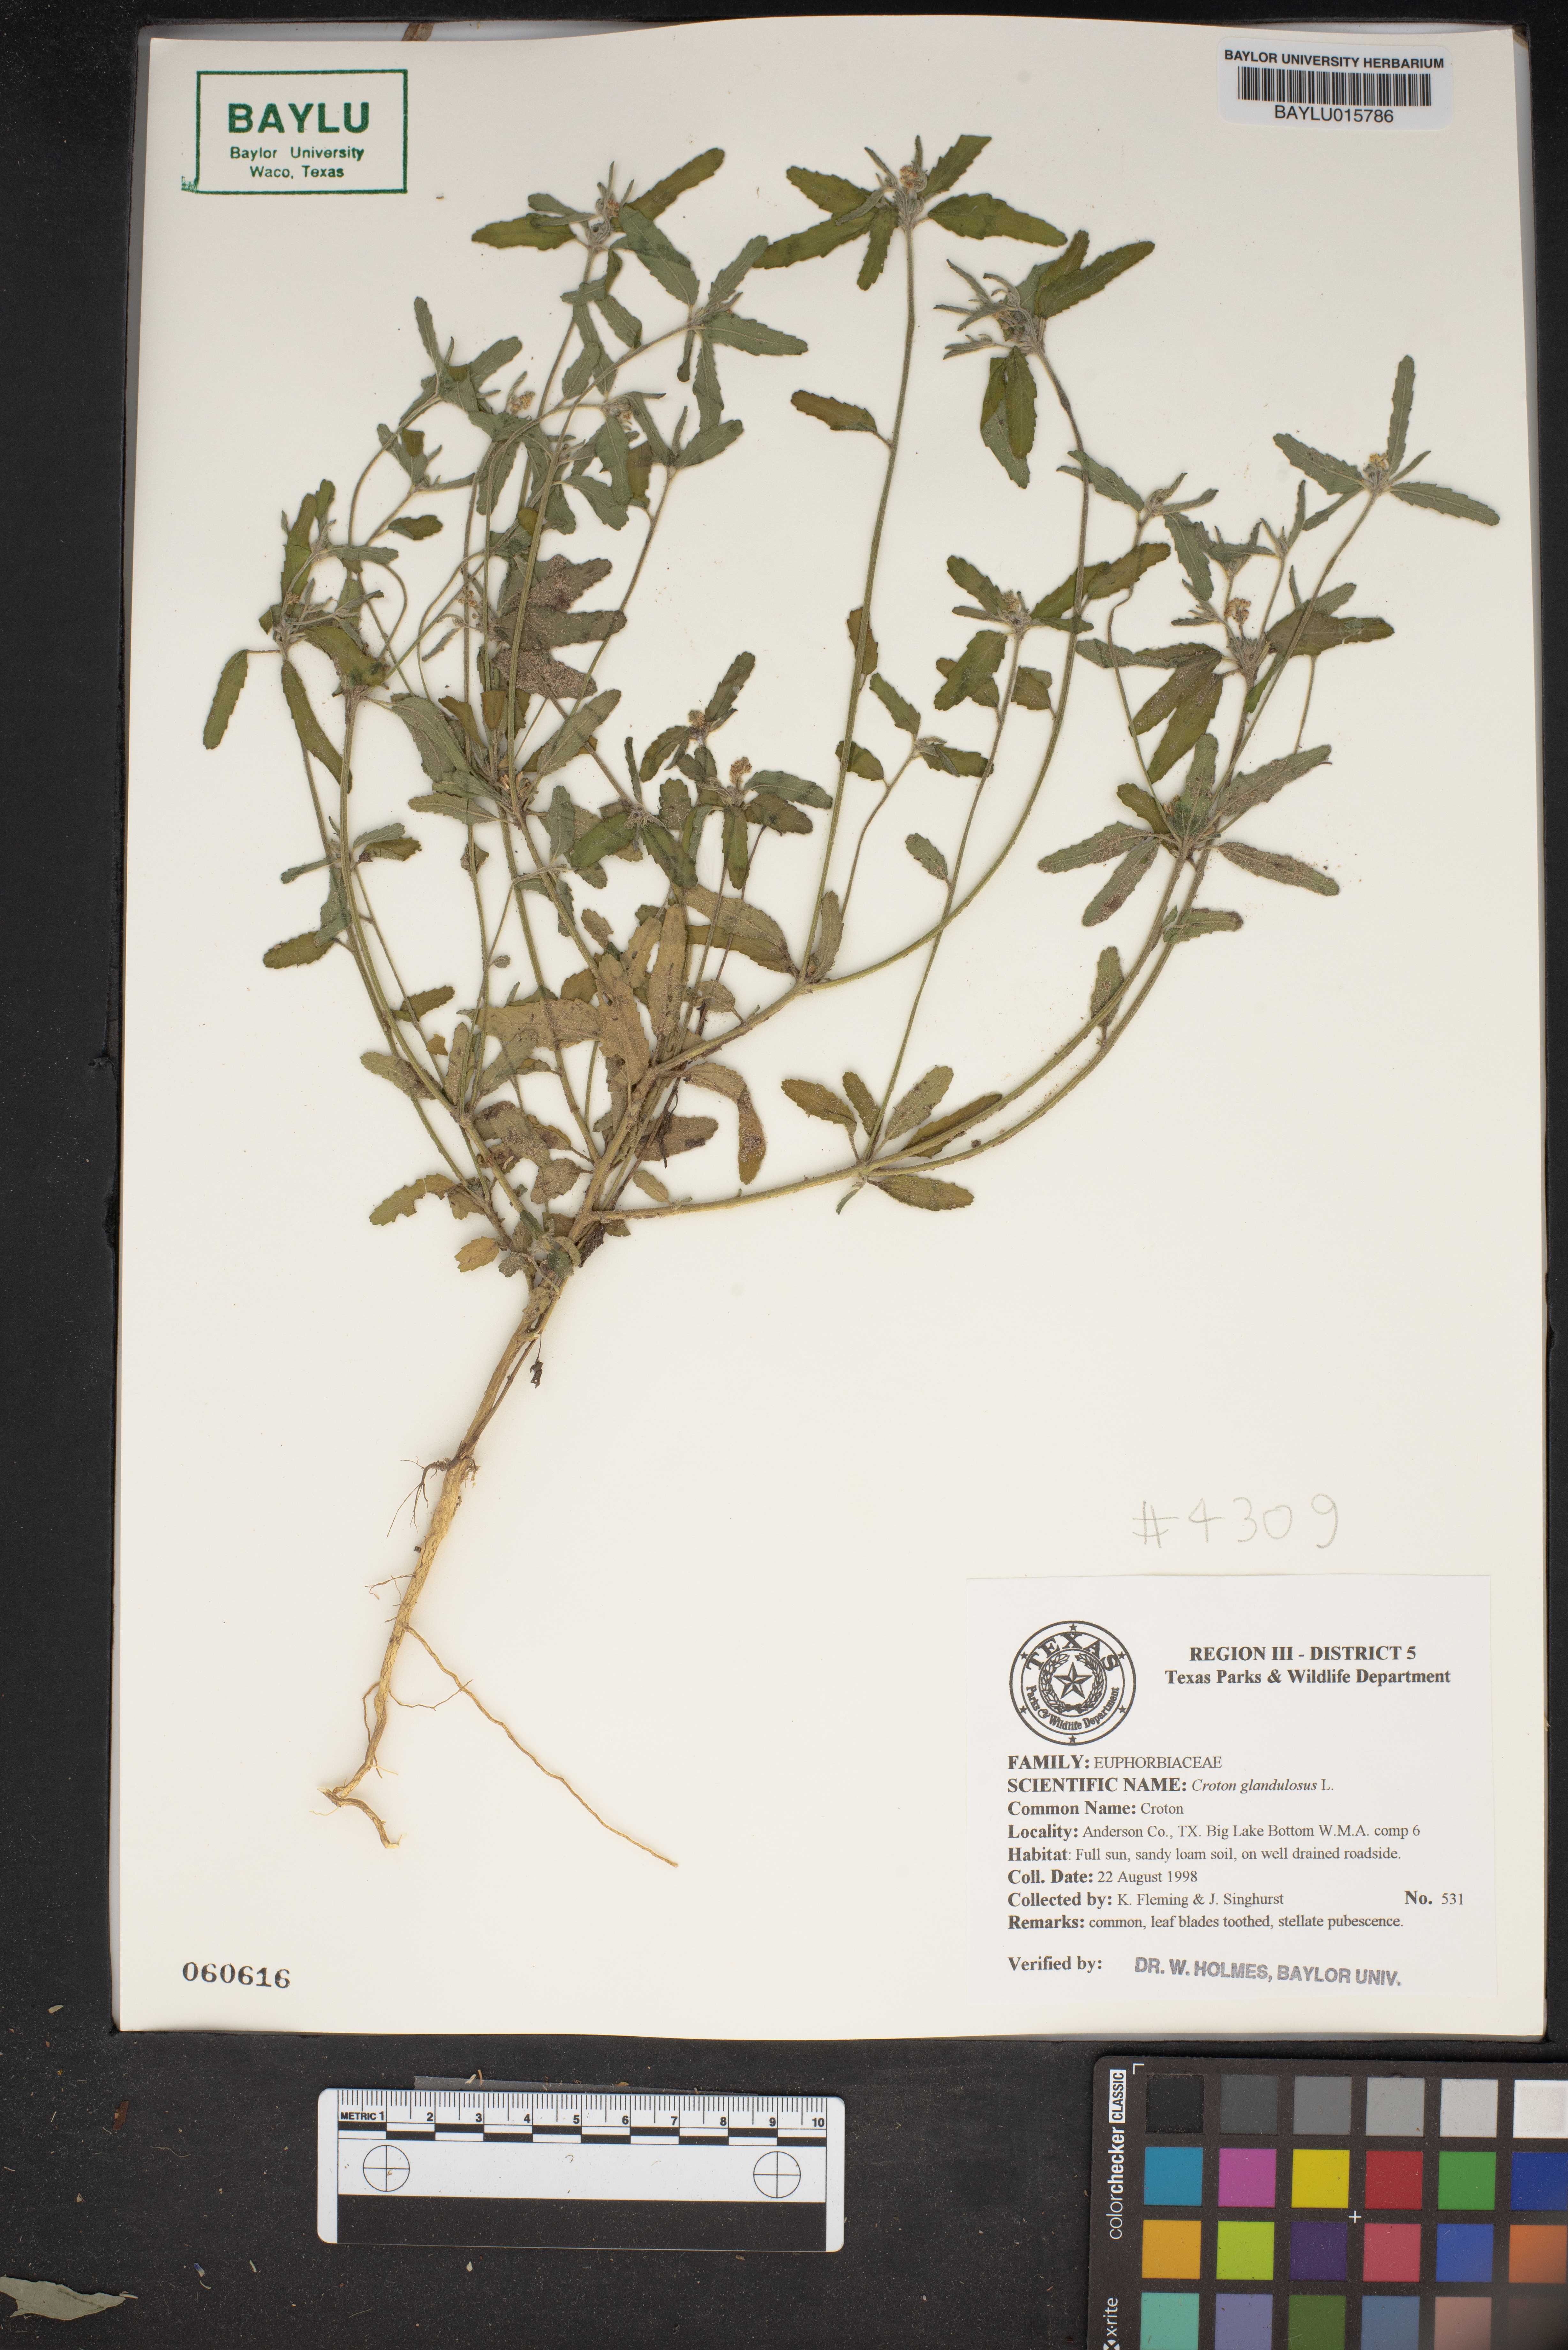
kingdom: Plantae
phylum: Tracheophyta
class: Magnoliopsida
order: Malpighiales
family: Euphorbiaceae
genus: Croton
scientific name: Croton glandulosus
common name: Tropic croton
